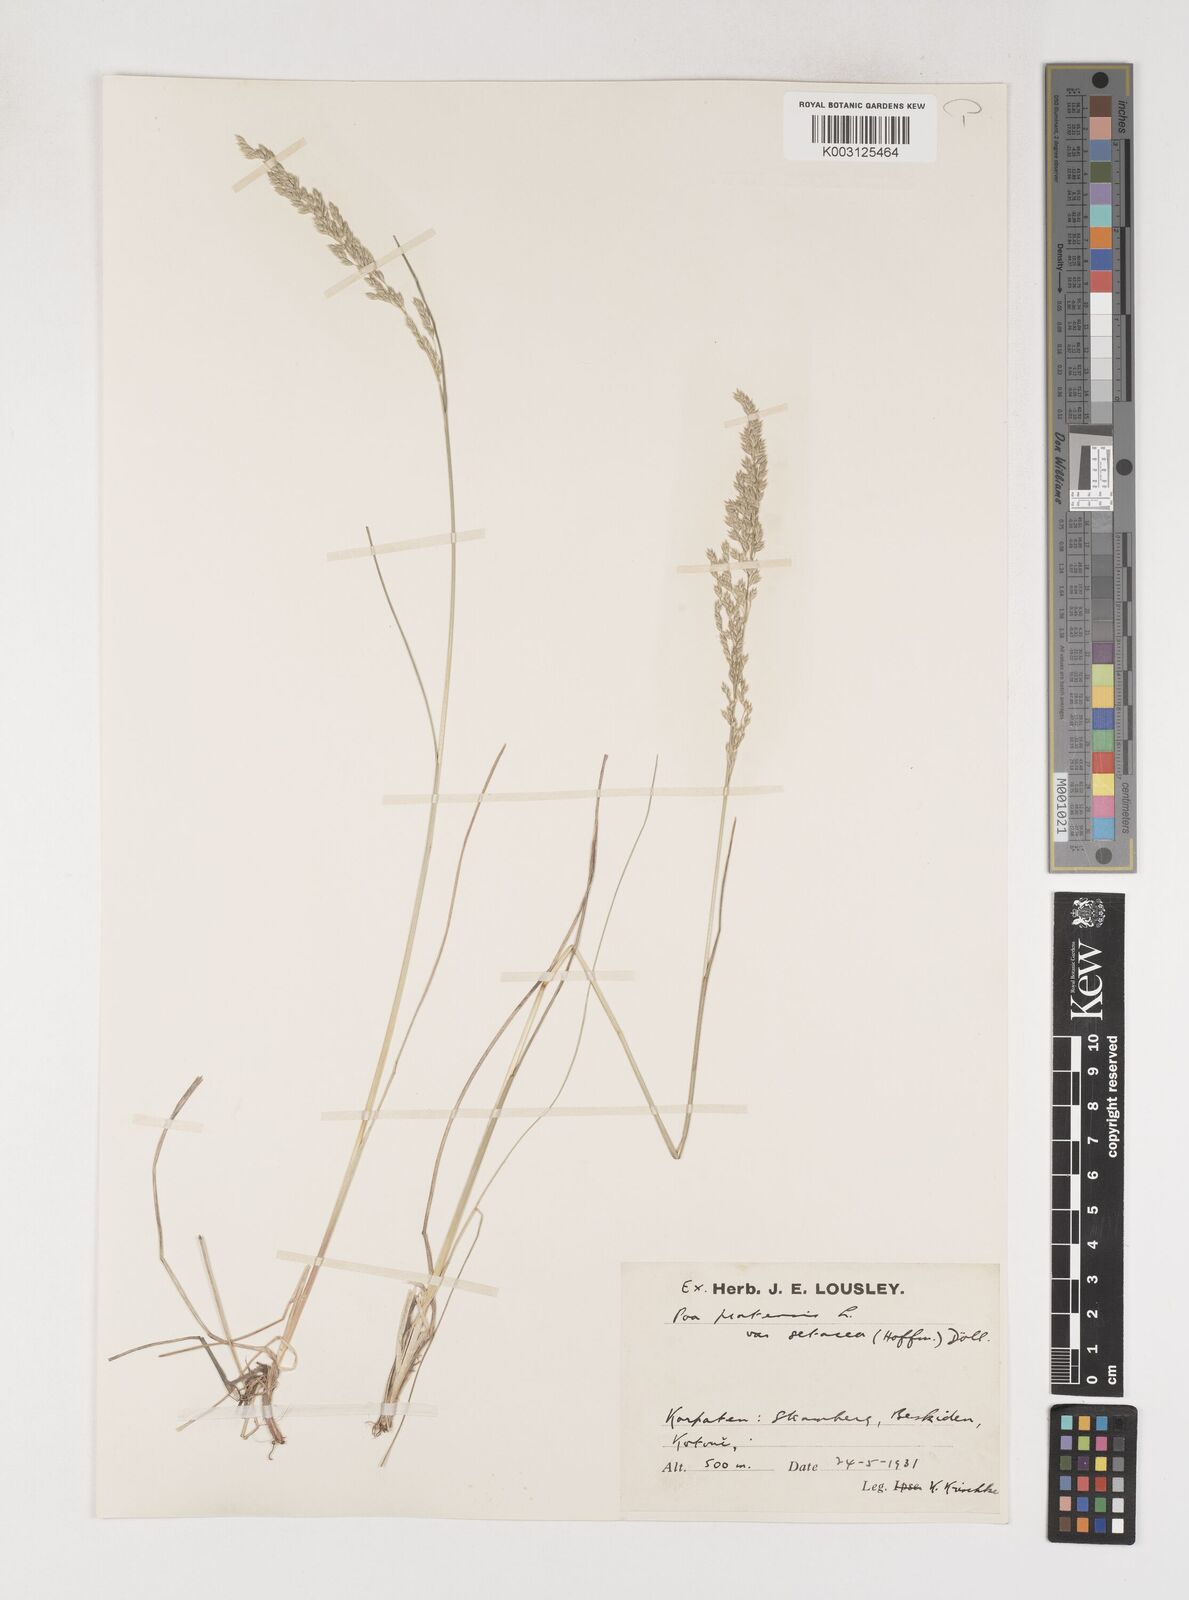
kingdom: Plantae
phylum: Tracheophyta
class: Liliopsida
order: Poales
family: Poaceae
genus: Poa
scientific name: Poa angustifolia
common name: Narrow-leaved meadow-grass
